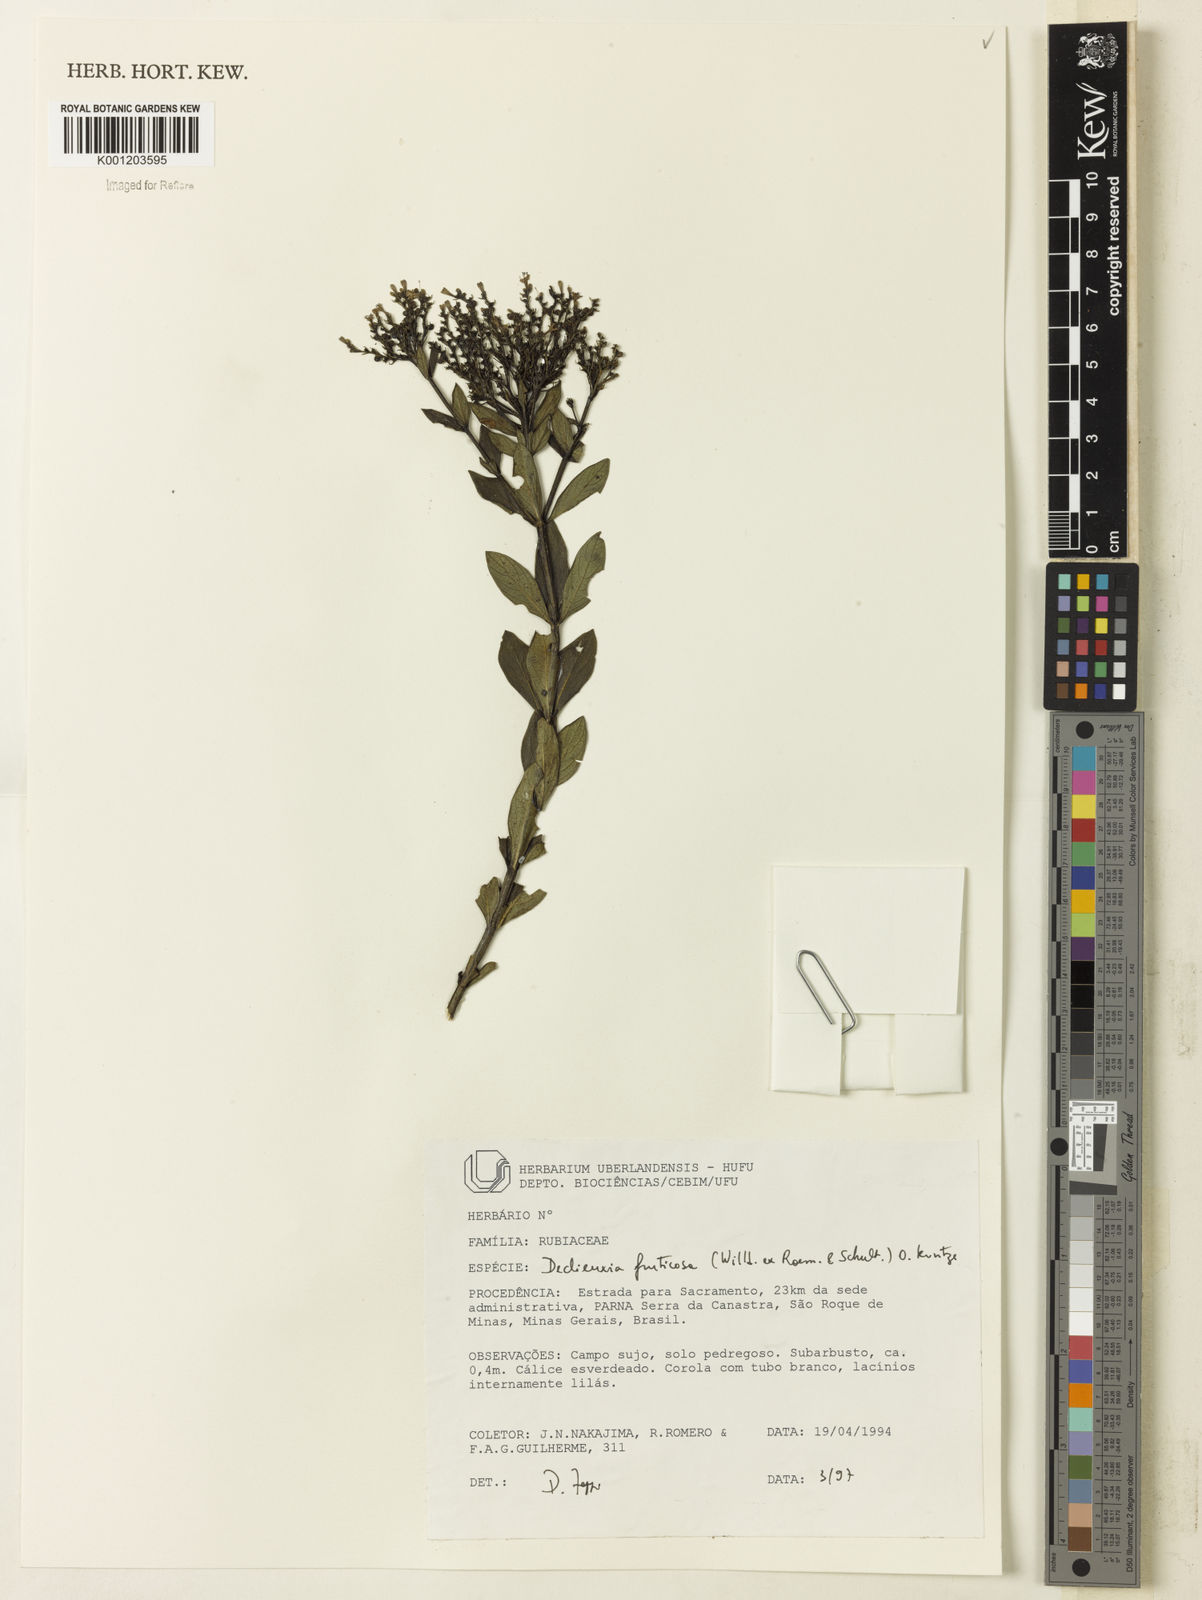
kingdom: Plantae
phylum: Tracheophyta
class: Magnoliopsida
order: Gentianales
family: Rubiaceae
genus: Declieuxia
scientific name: Declieuxia fruticosa
